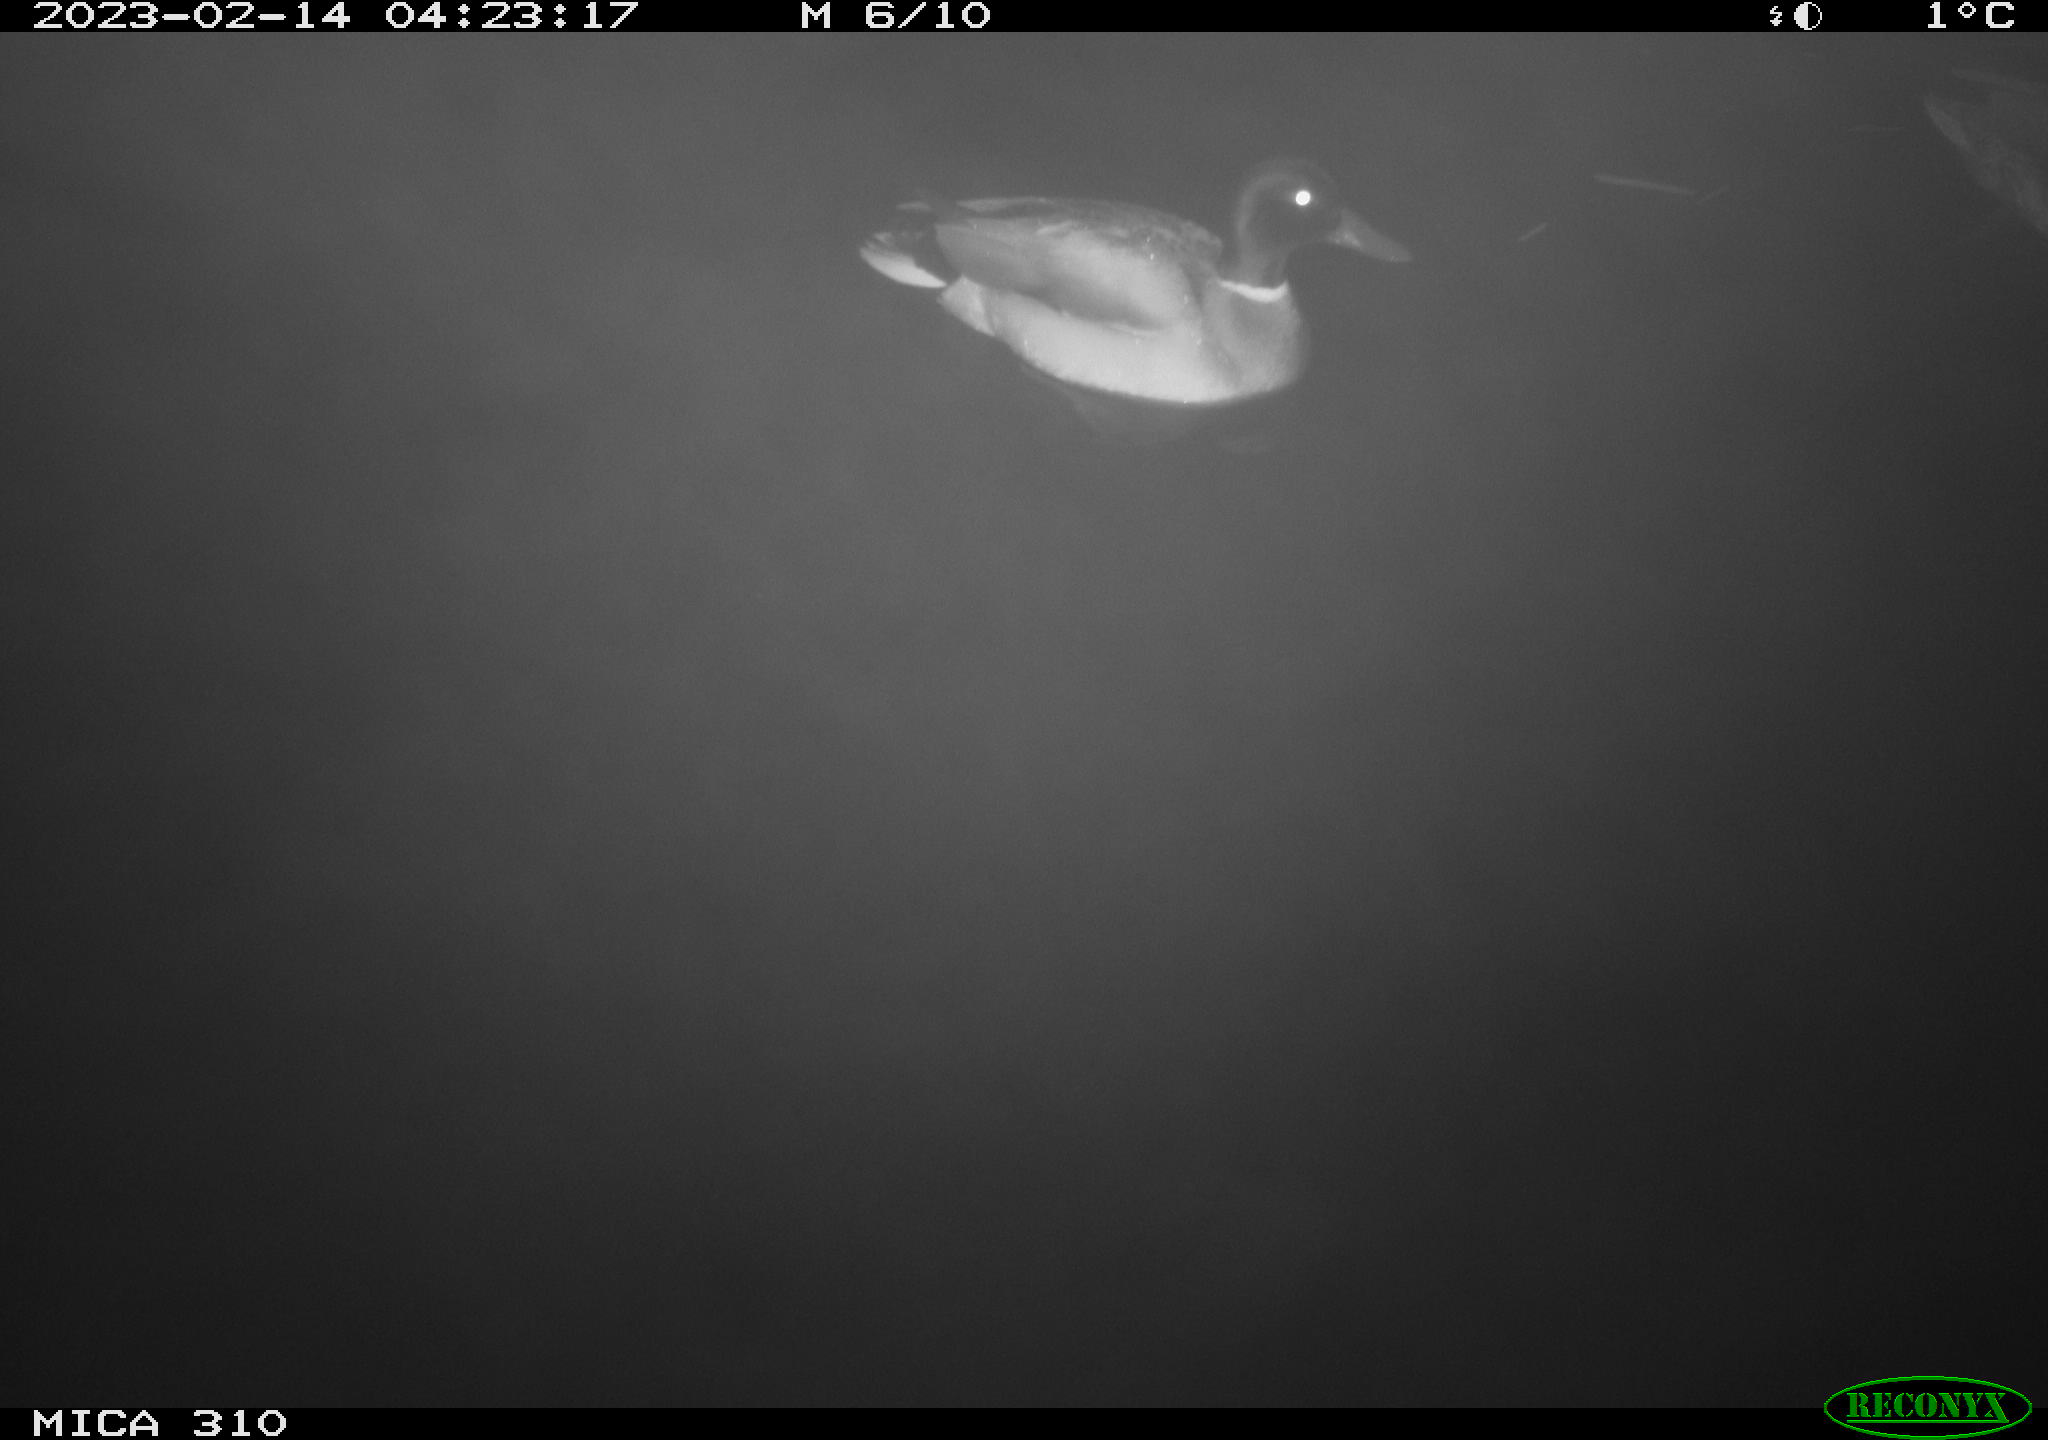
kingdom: Animalia
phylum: Chordata
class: Aves
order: Anseriformes
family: Anatidae
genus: Anas
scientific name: Anas
